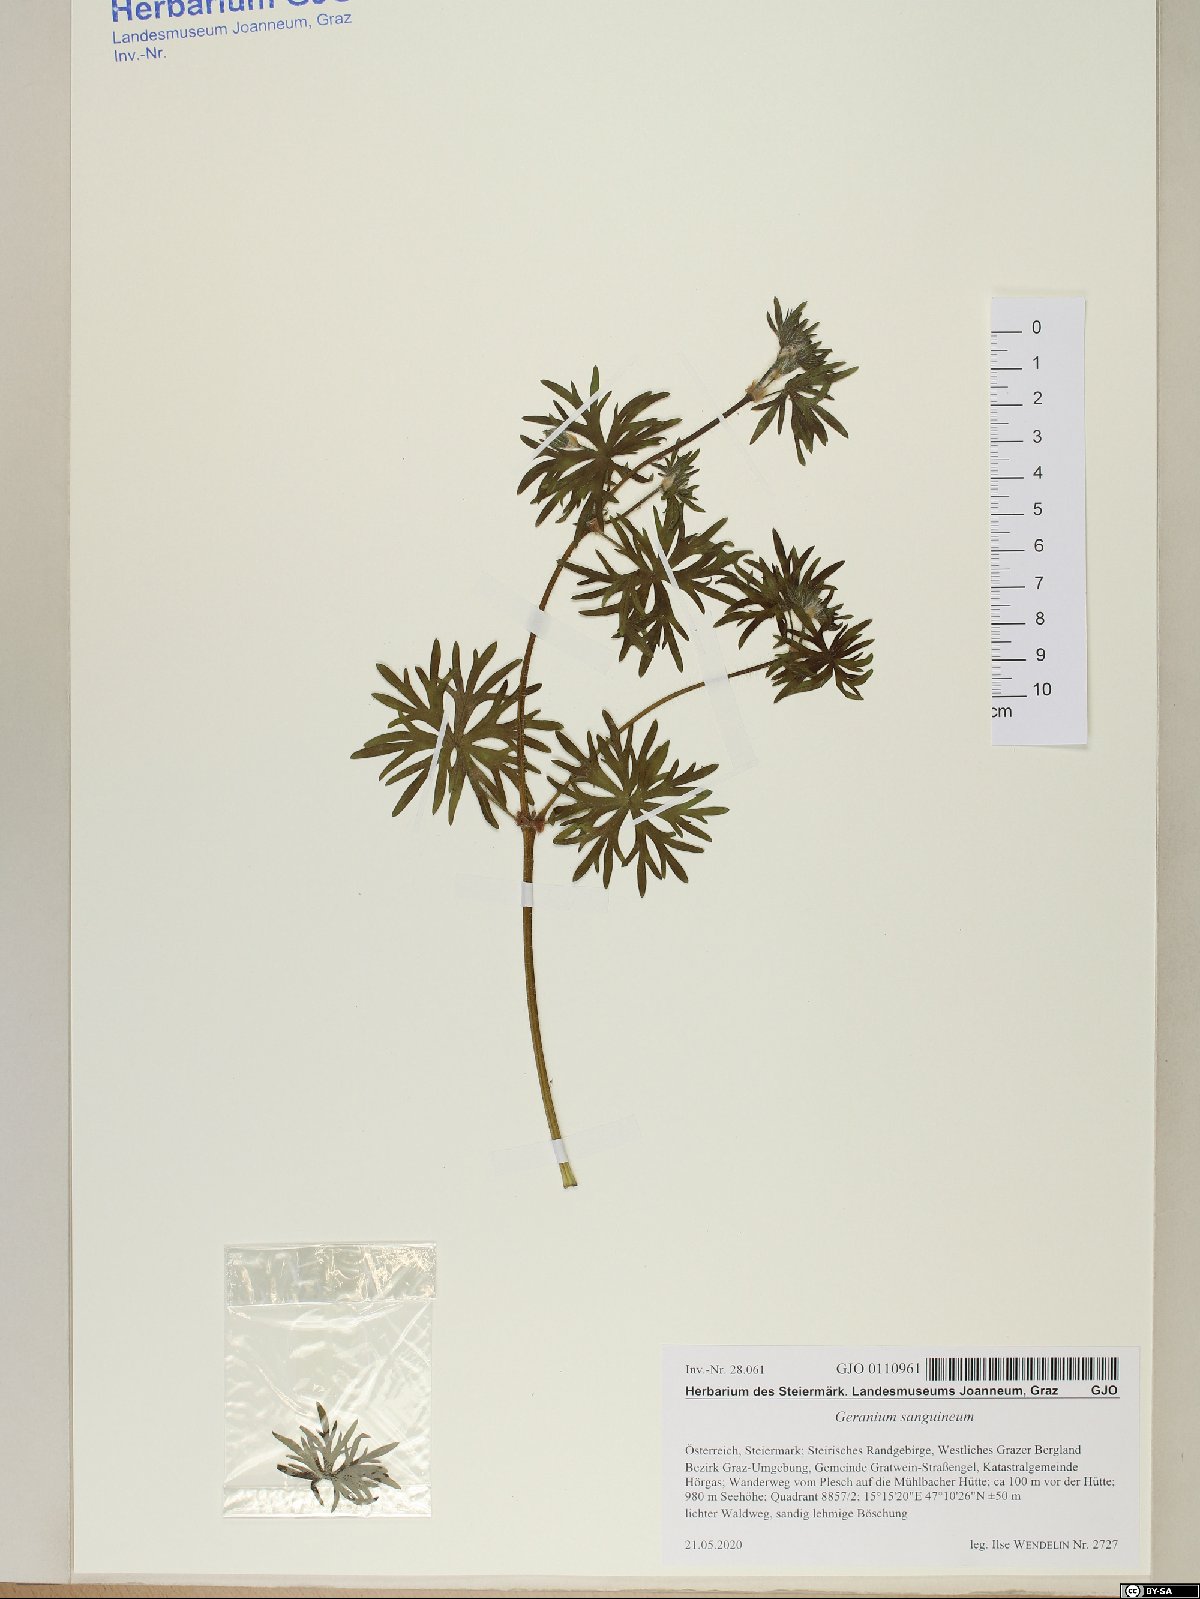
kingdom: Plantae
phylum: Tracheophyta
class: Magnoliopsida
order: Geraniales
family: Geraniaceae
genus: Geranium
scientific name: Geranium sanguineum
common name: Bloody crane's-bill
